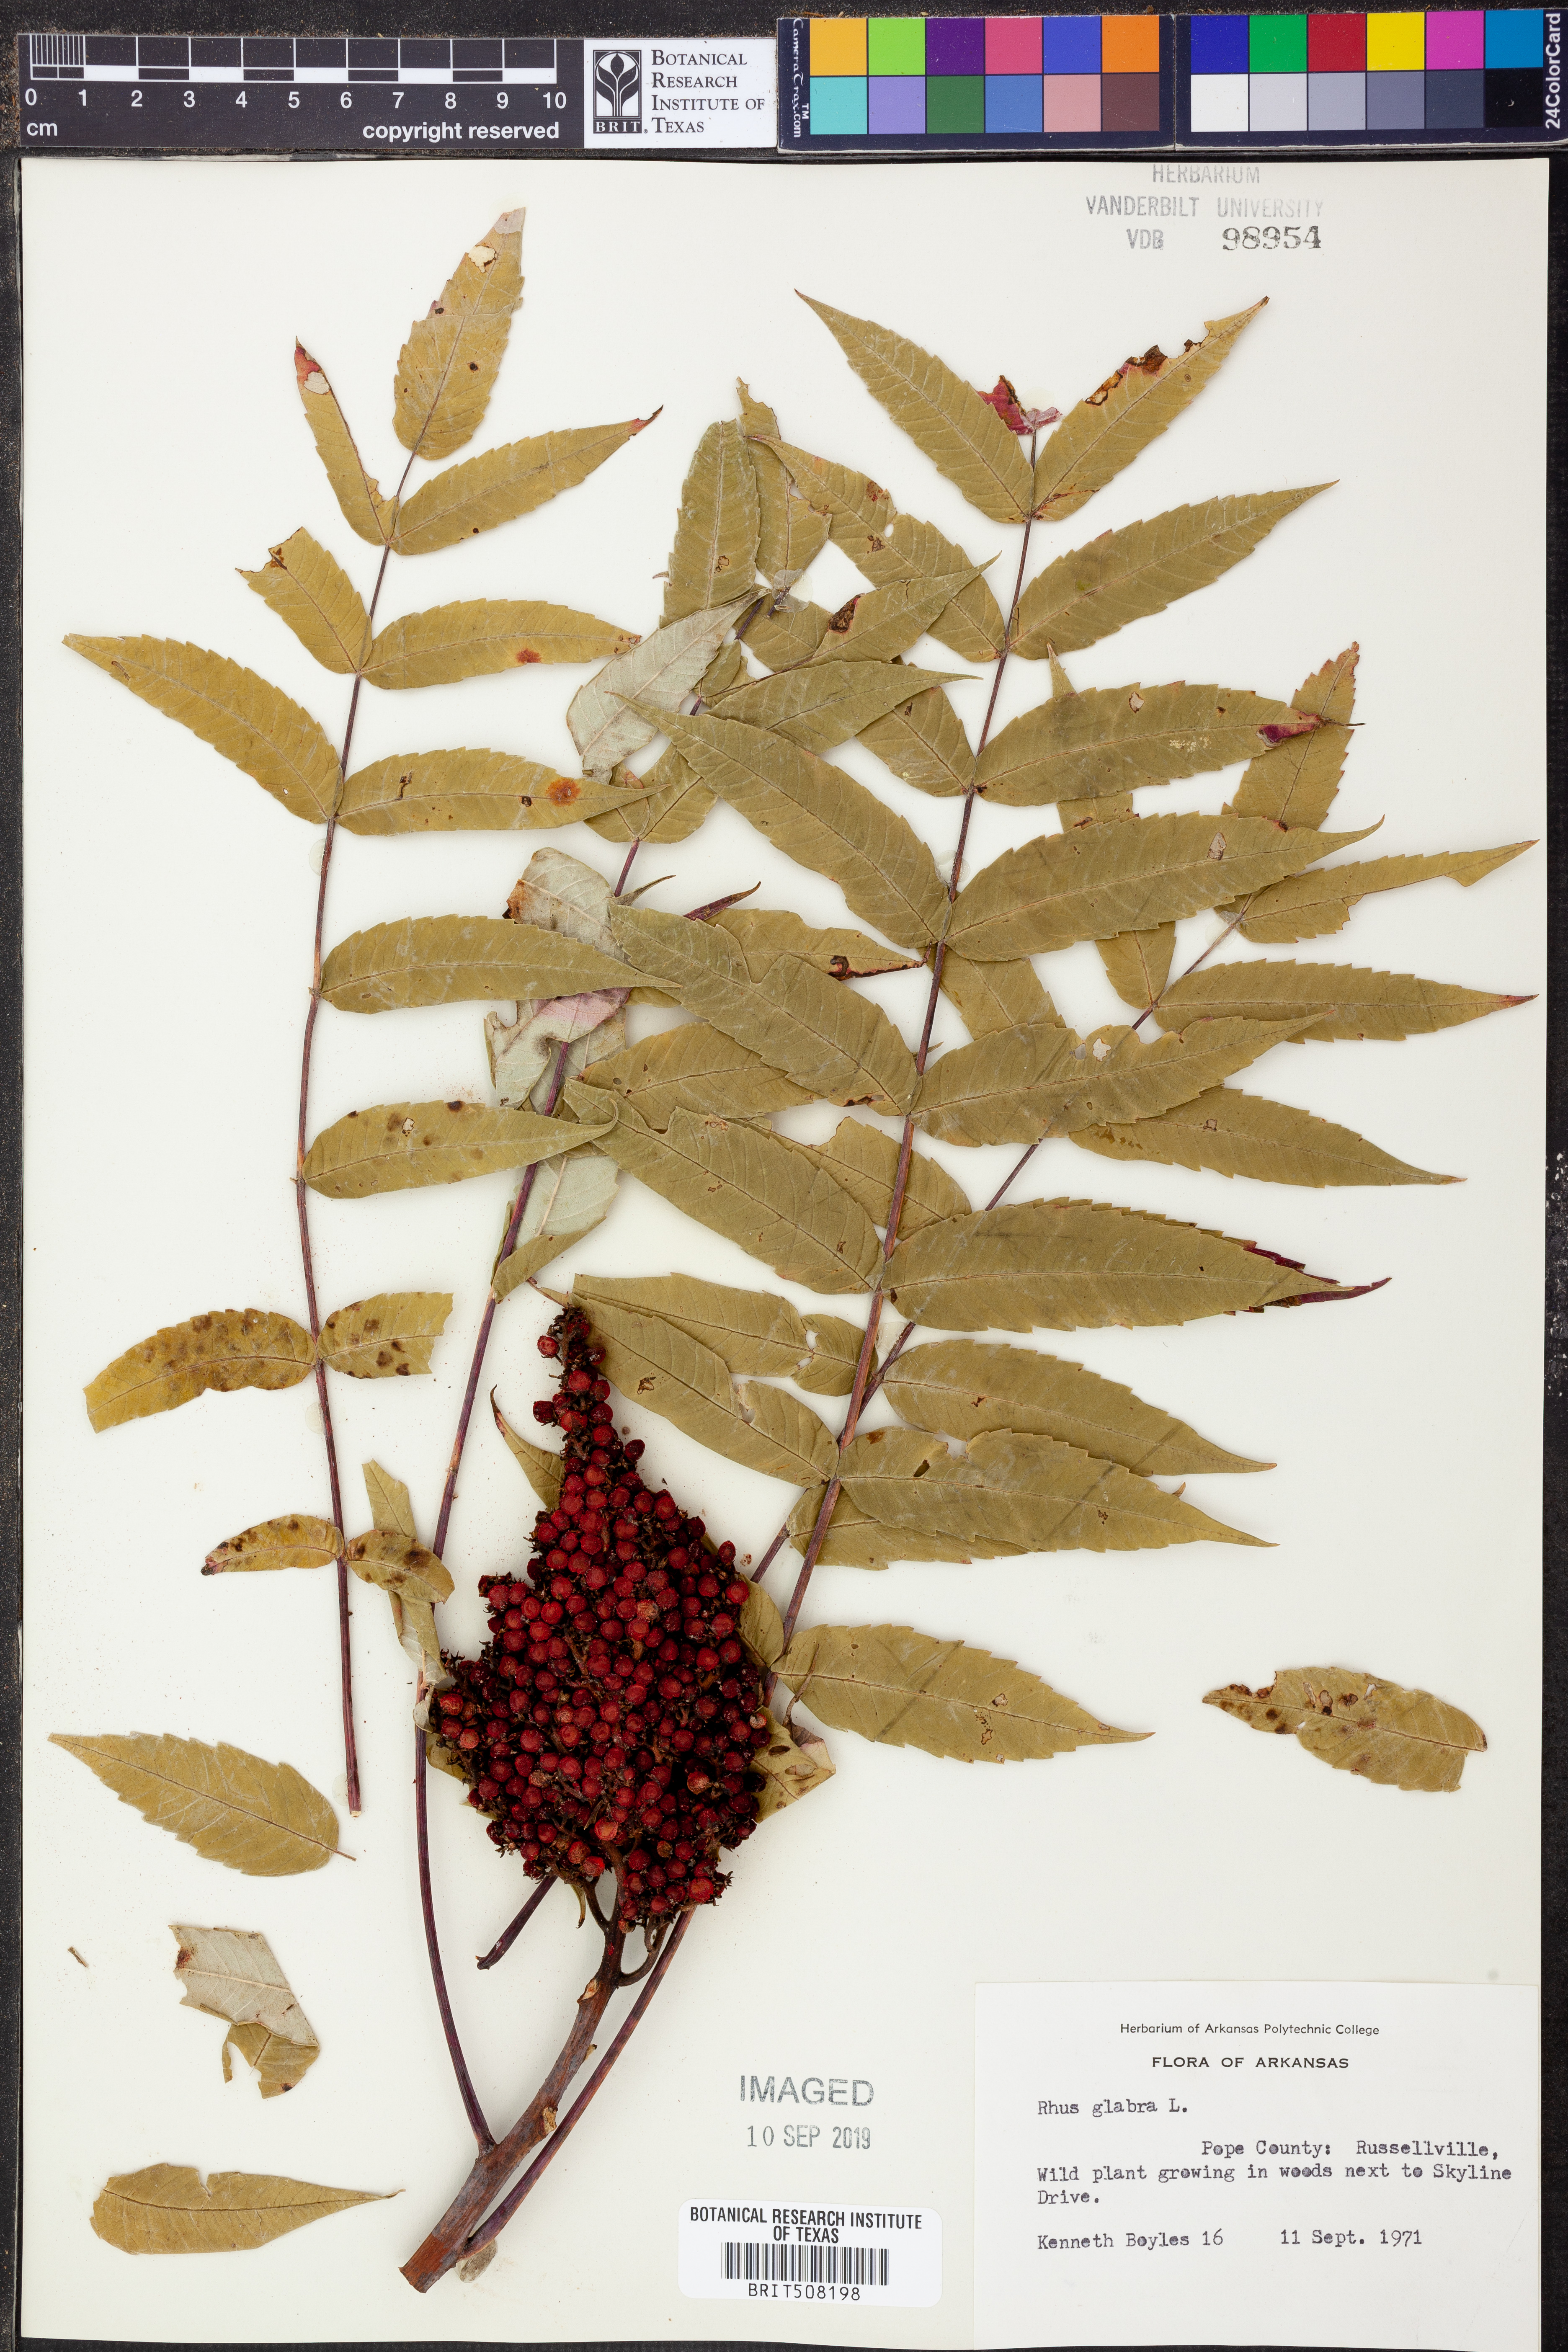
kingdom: Plantae
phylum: Tracheophyta
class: Magnoliopsida
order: Sapindales
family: Anacardiaceae
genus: Rhus
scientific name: Rhus glabra
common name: Scarlet sumac
